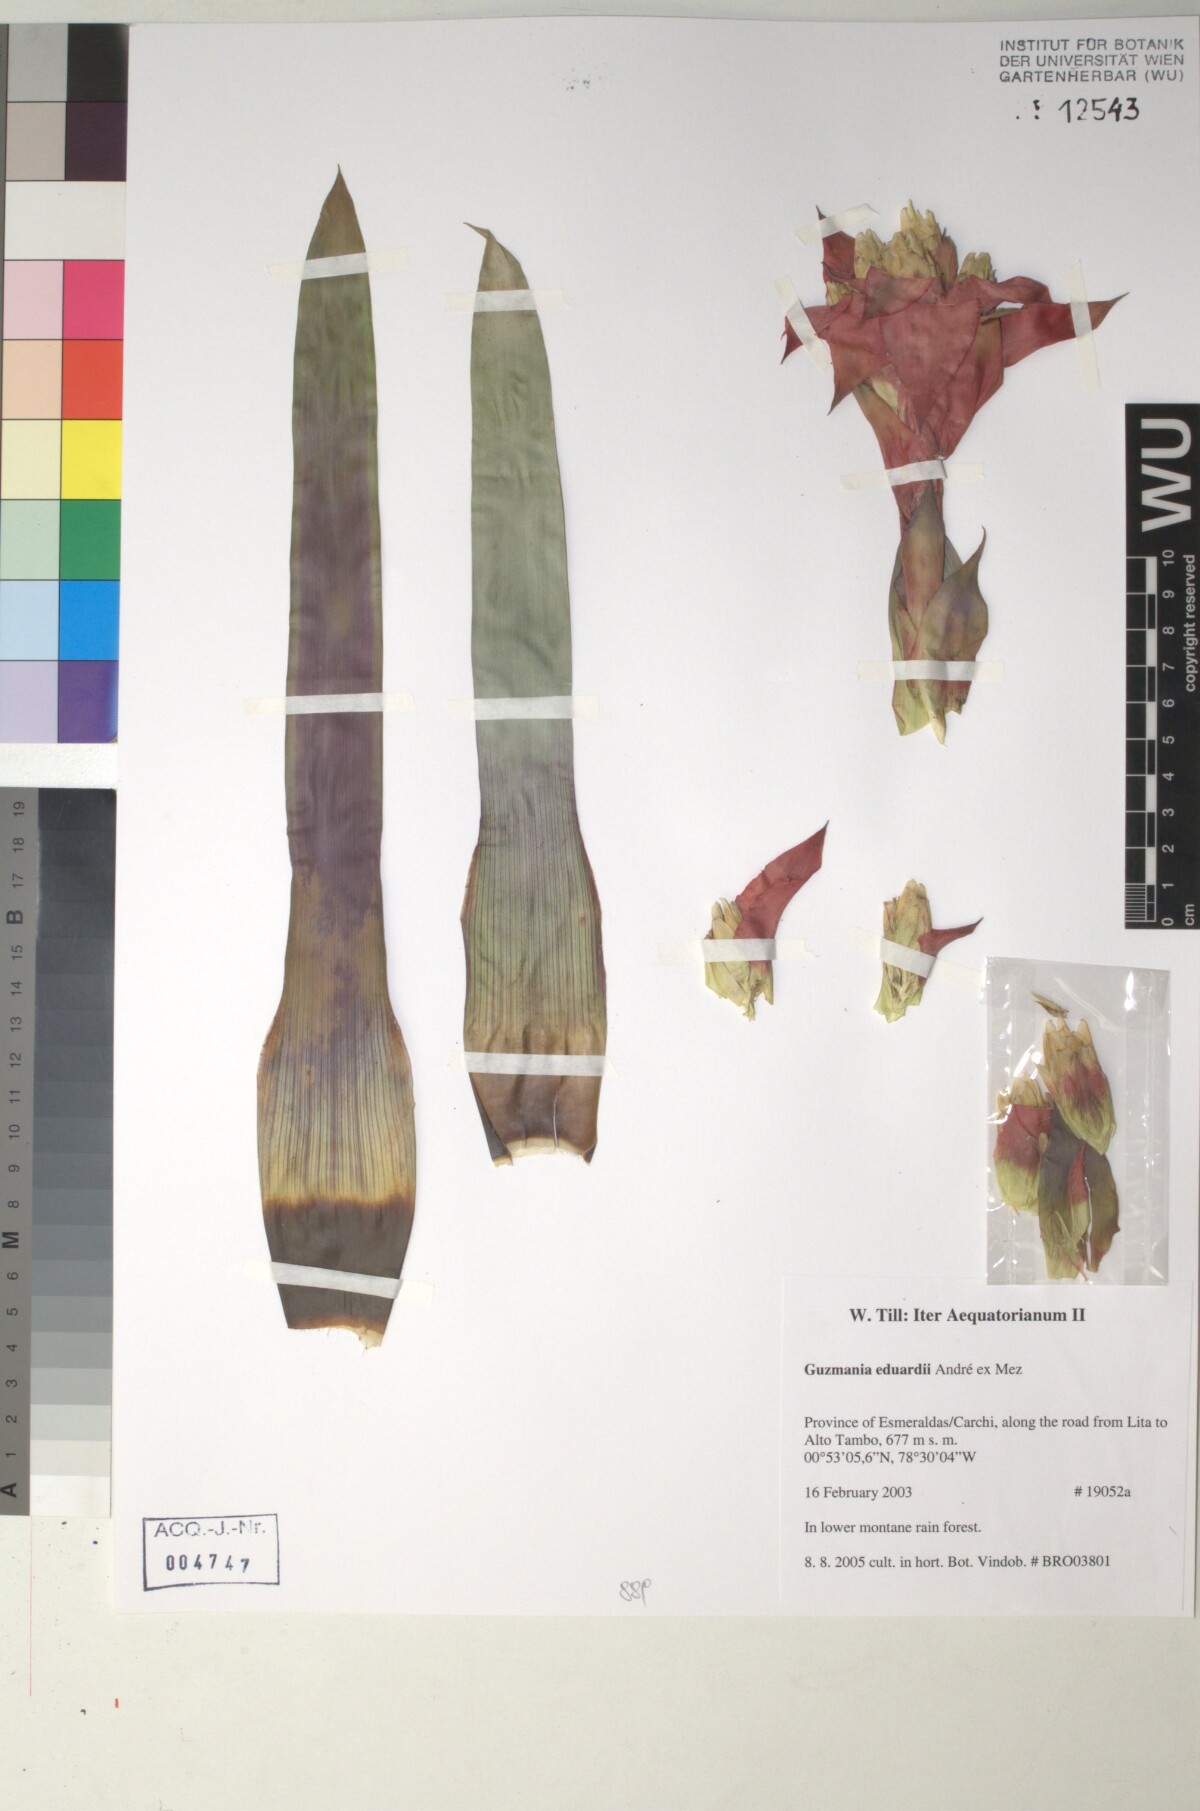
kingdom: Plantae
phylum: Tracheophyta
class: Liliopsida
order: Poales
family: Bromeliaceae
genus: Guzmania
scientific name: Guzmania eduardi
